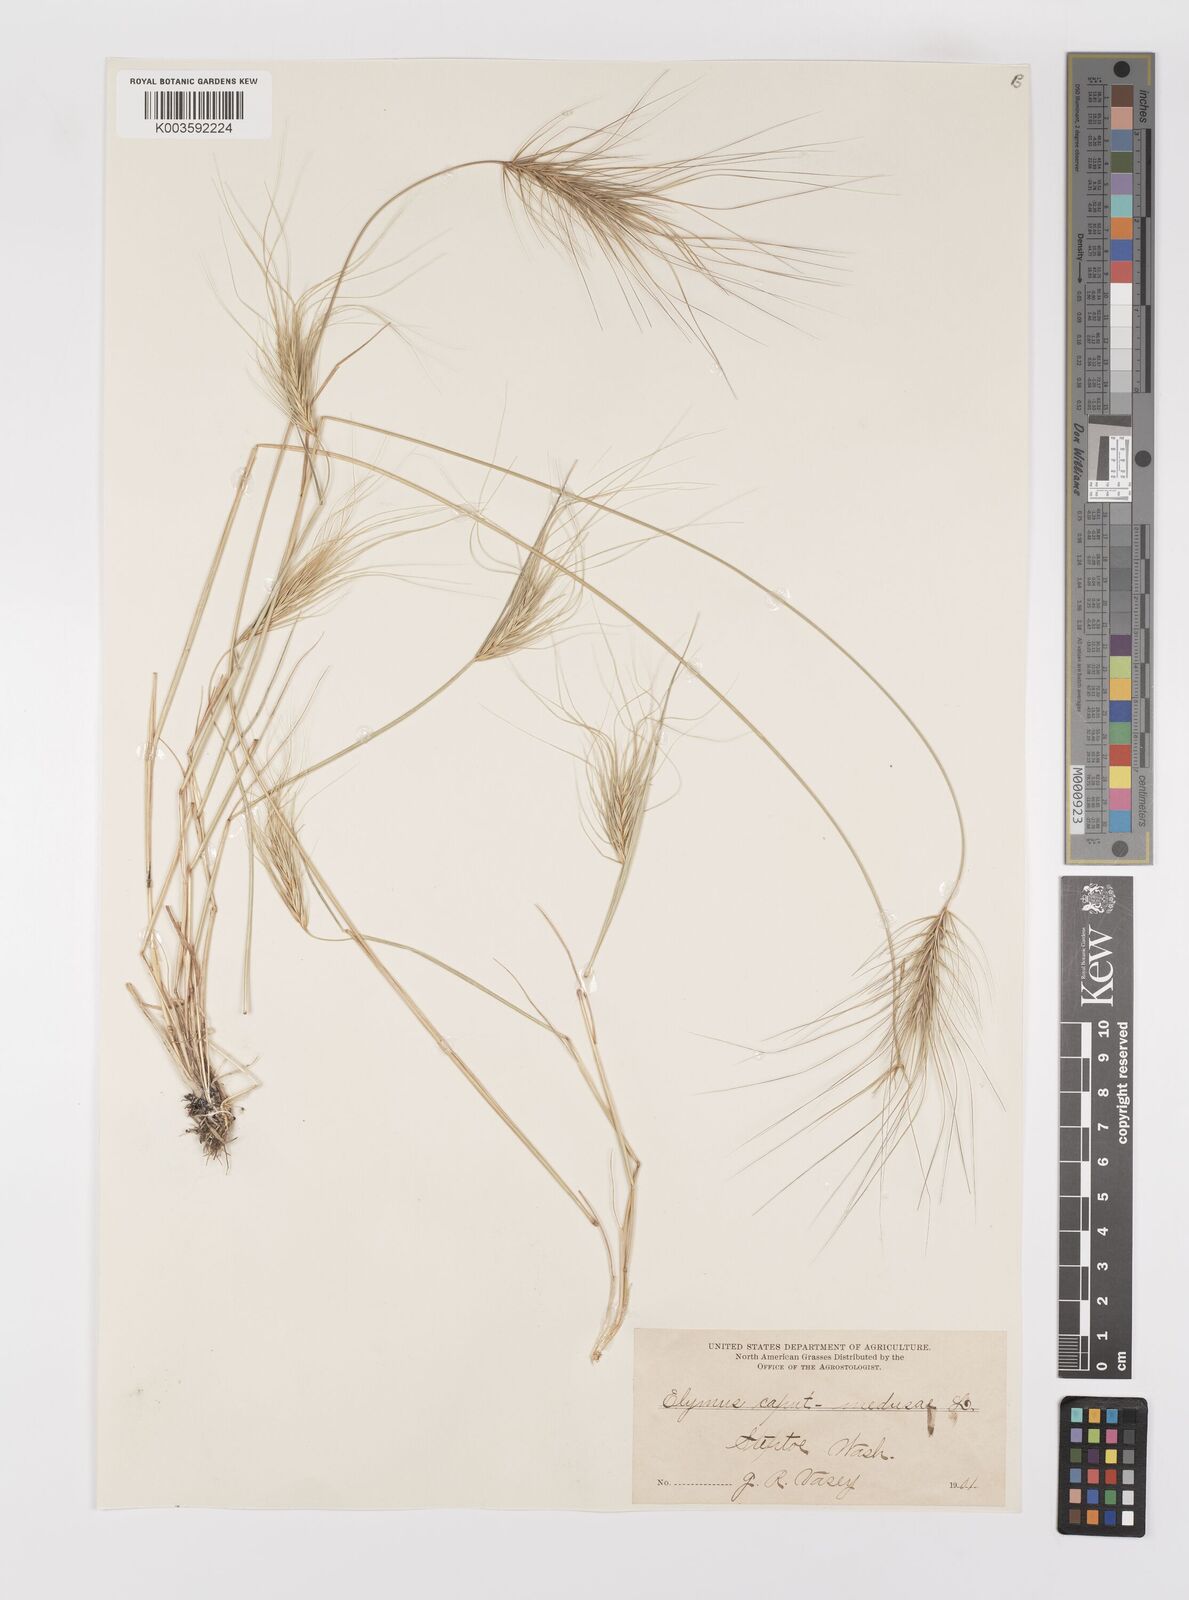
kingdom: Plantae
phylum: Tracheophyta
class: Liliopsida
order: Poales
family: Poaceae
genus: Taeniatherum
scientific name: Taeniatherum caput-medusae
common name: Medusahead
